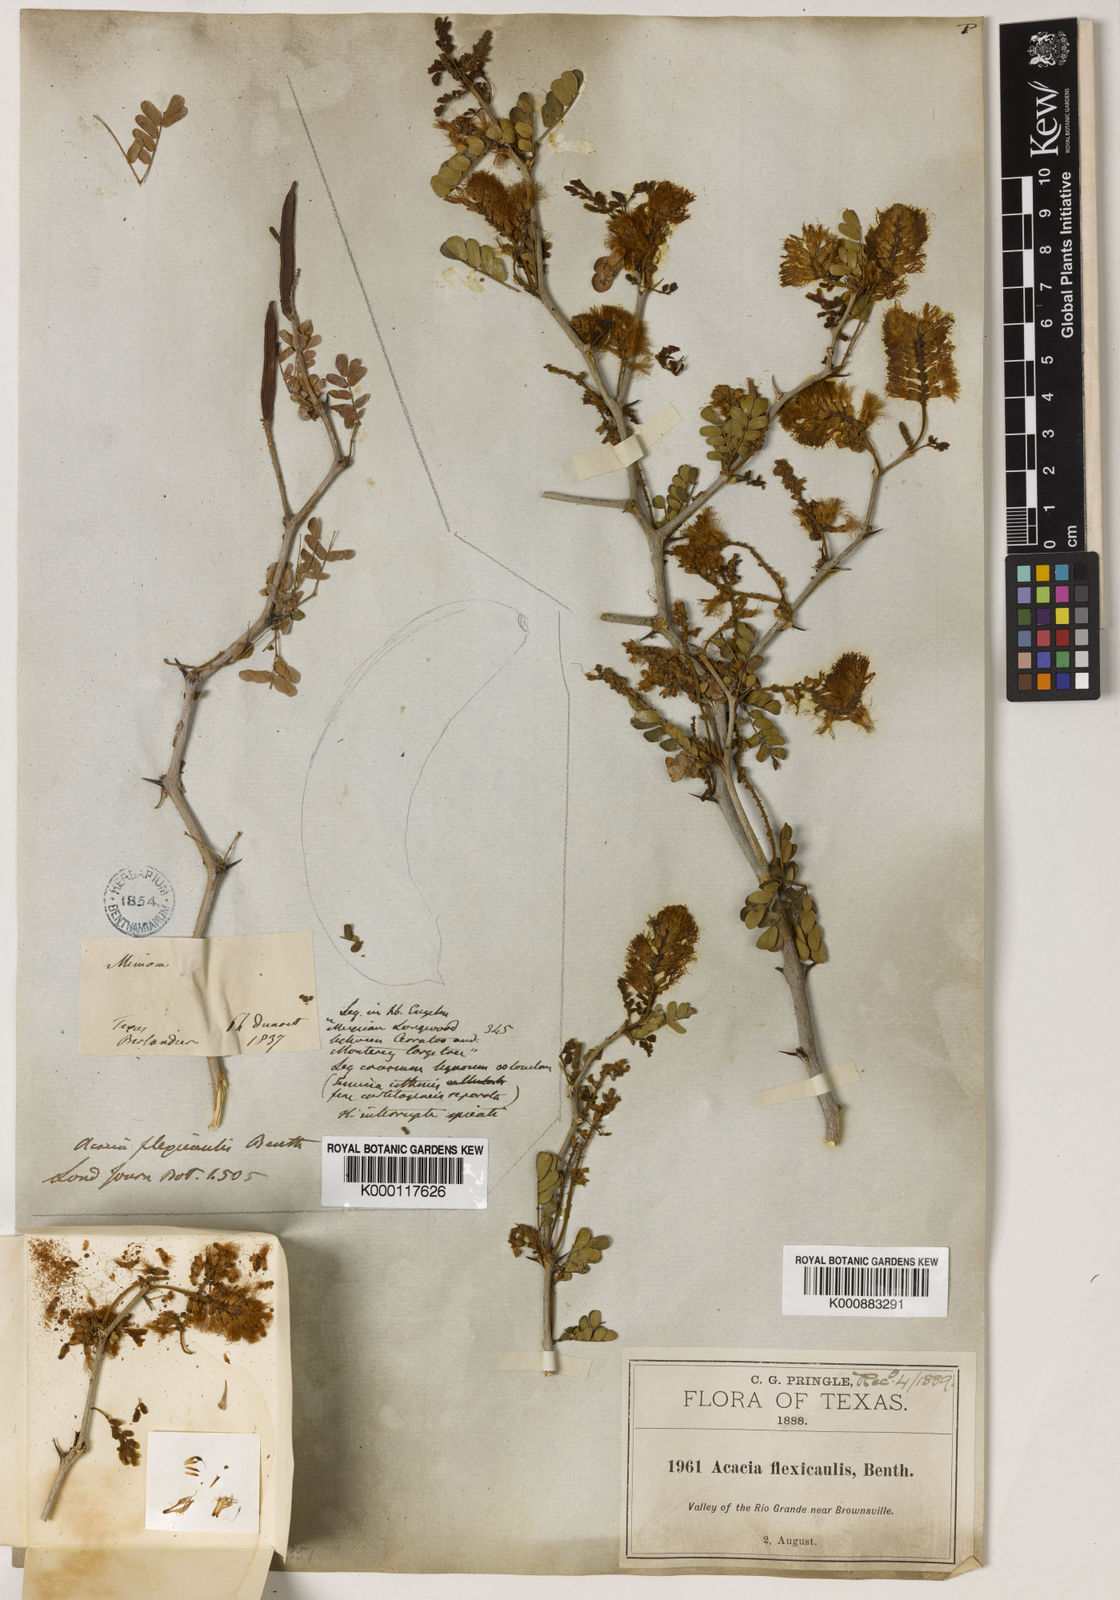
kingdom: Plantae
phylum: Tracheophyta
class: Magnoliopsida
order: Fabales
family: Fabaceae
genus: Chloroleucon
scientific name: Chloroleucon
